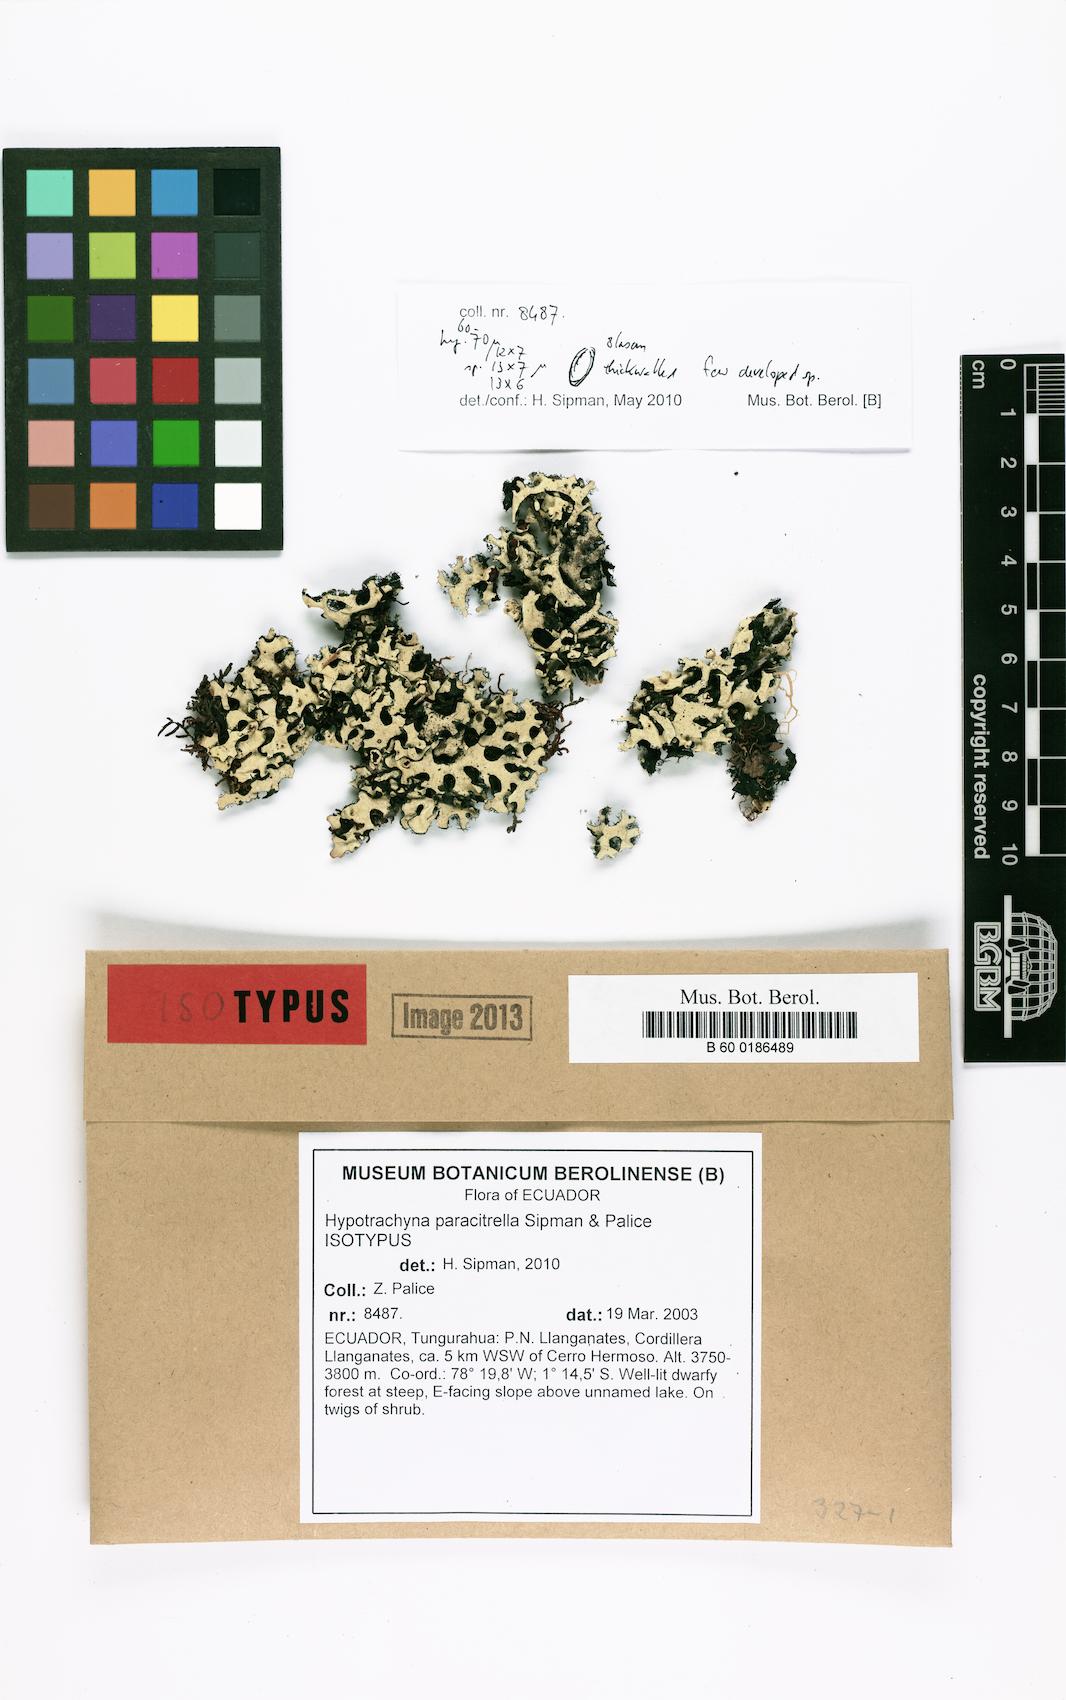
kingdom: Fungi
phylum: Ascomycota
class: Lecanoromycetes
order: Lecanorales
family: Parmeliaceae
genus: Hypotrachyna
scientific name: Hypotrachyna paracitrella
